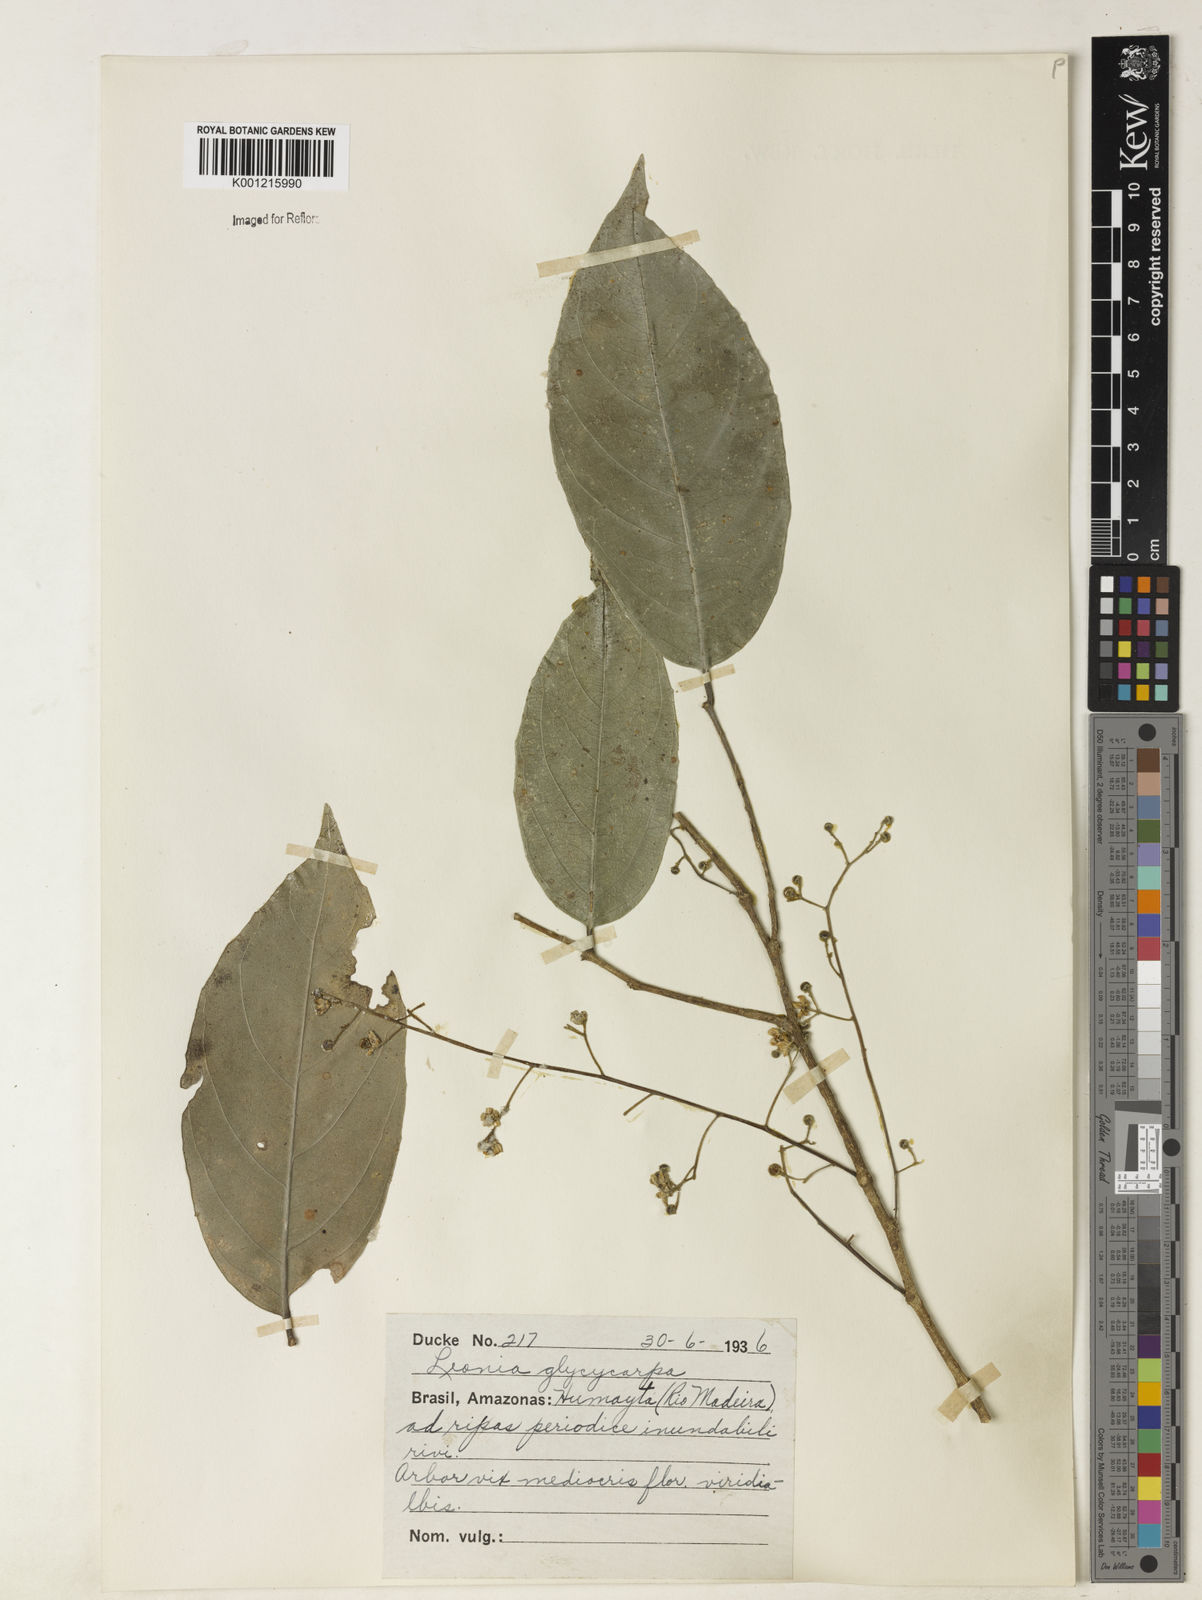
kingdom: Plantae
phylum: Tracheophyta
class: Magnoliopsida
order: Malpighiales
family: Violaceae
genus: Leonia
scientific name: Leonia glycycarpa
